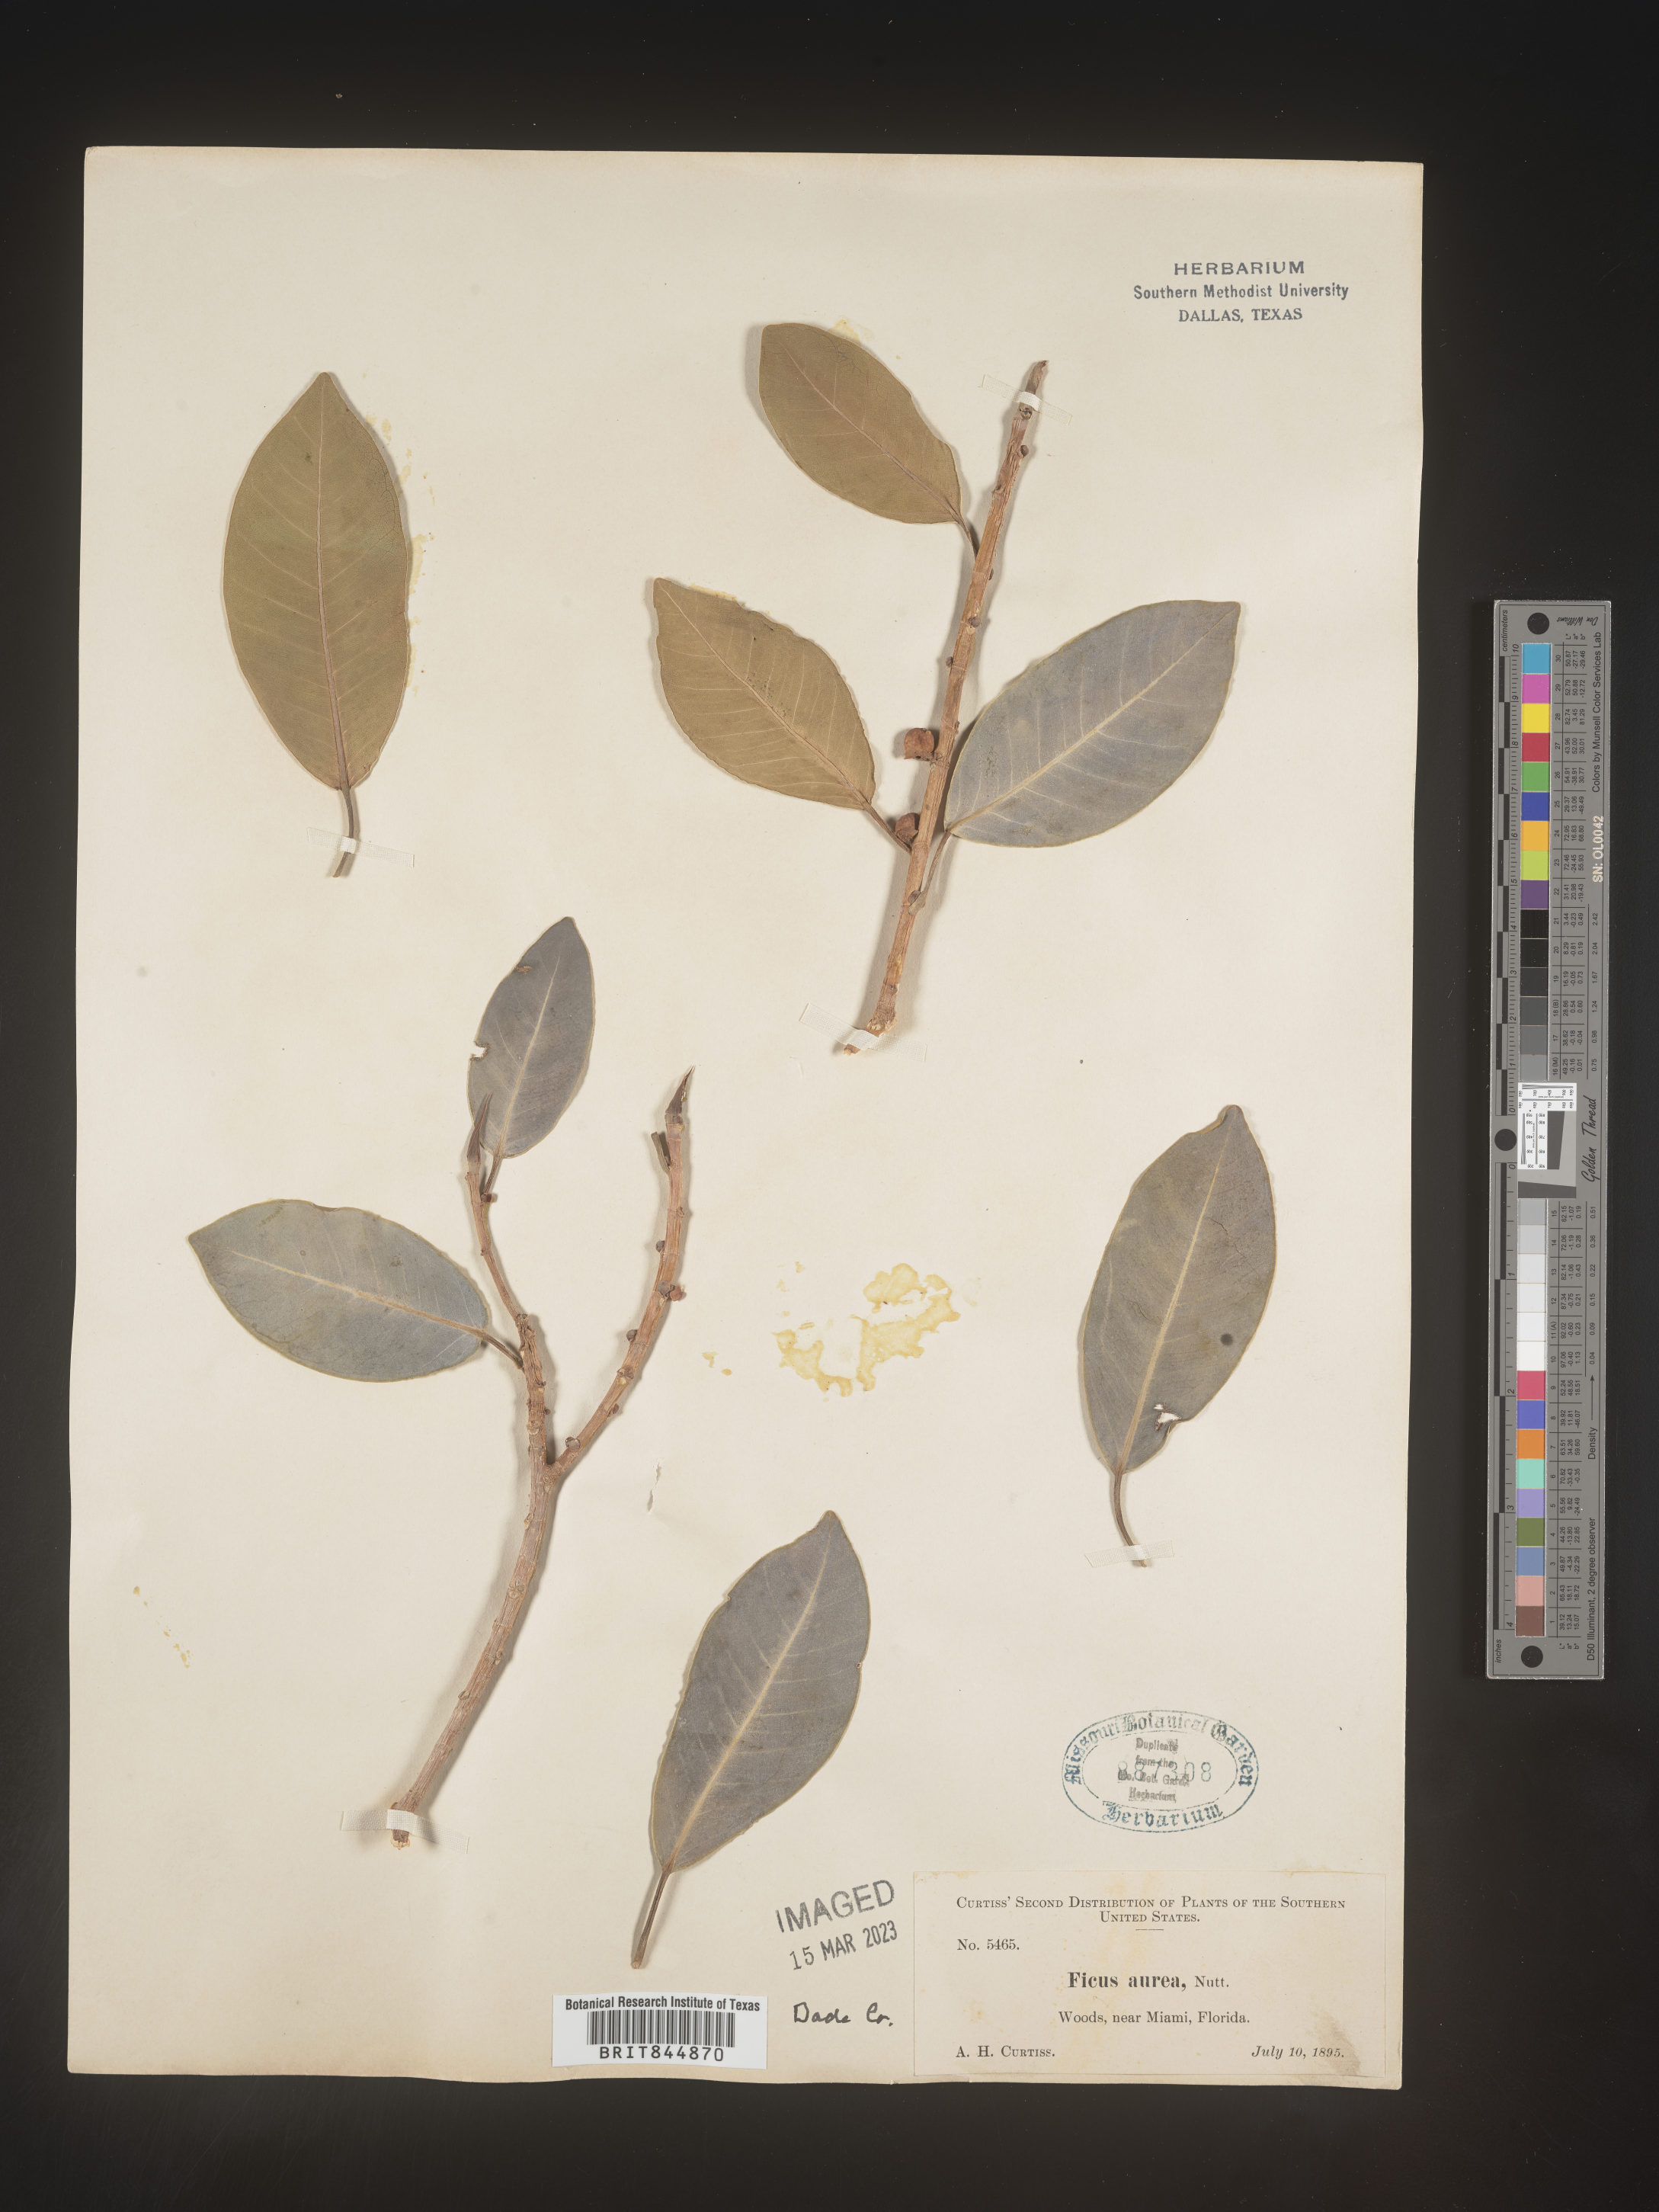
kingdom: Plantae
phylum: Tracheophyta
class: Magnoliopsida
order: Rosales
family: Moraceae
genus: Ficus
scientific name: Ficus
